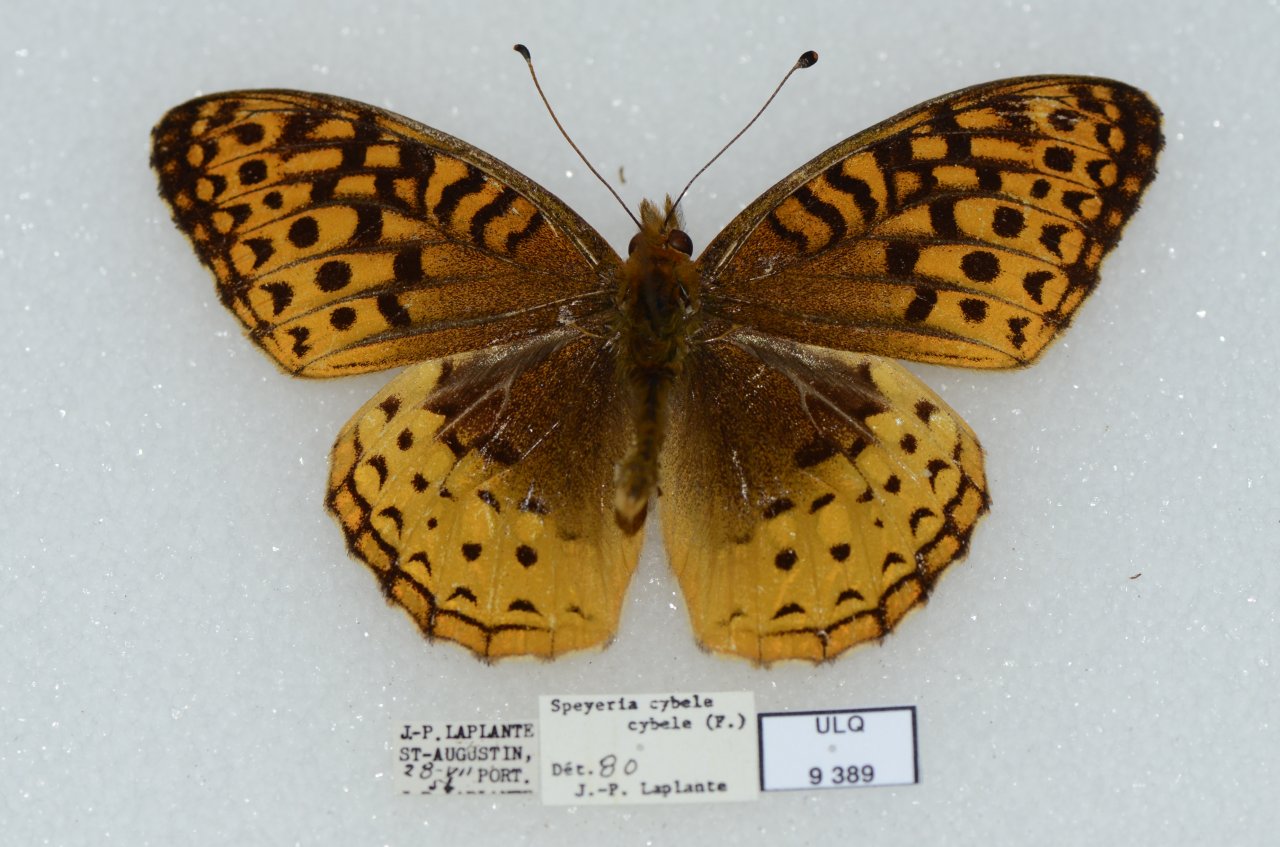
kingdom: Animalia
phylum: Arthropoda
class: Insecta
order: Lepidoptera
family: Nymphalidae
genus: Speyeria
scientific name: Speyeria cybele
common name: Great Spangled Fritillary
